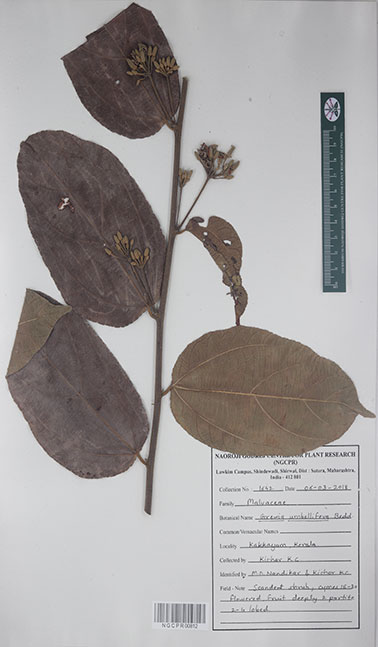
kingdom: Plantae
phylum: Tracheophyta
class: Magnoliopsida
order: Malvales
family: Malvaceae
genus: Grewia
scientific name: Grewia umbellifera
